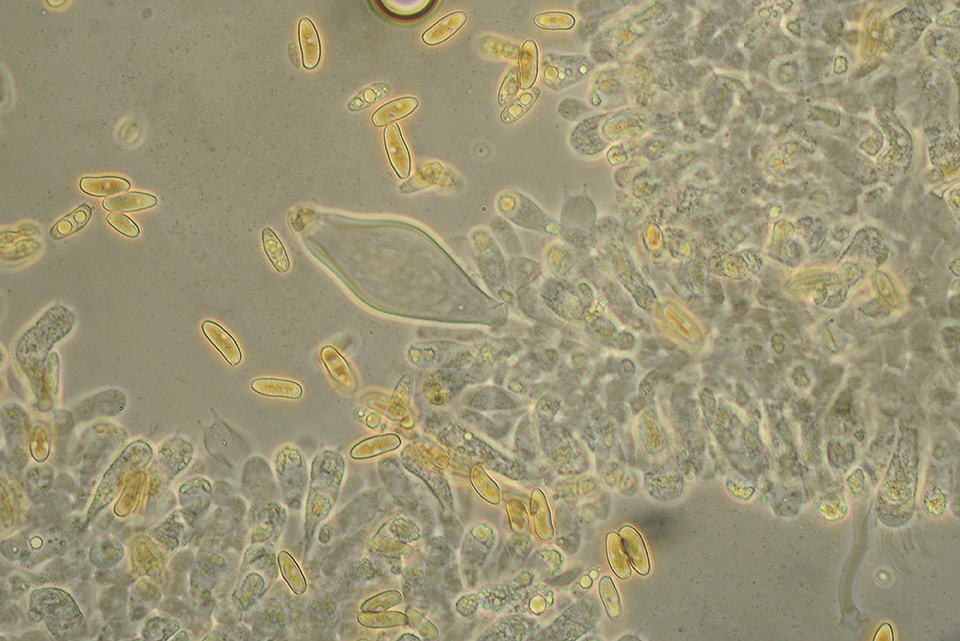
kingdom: Fungi
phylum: Basidiomycota
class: Agaricomycetes
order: Agaricales
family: Inocybaceae
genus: Inocybe
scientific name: Inocybe lacera
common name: laset trævlhat
